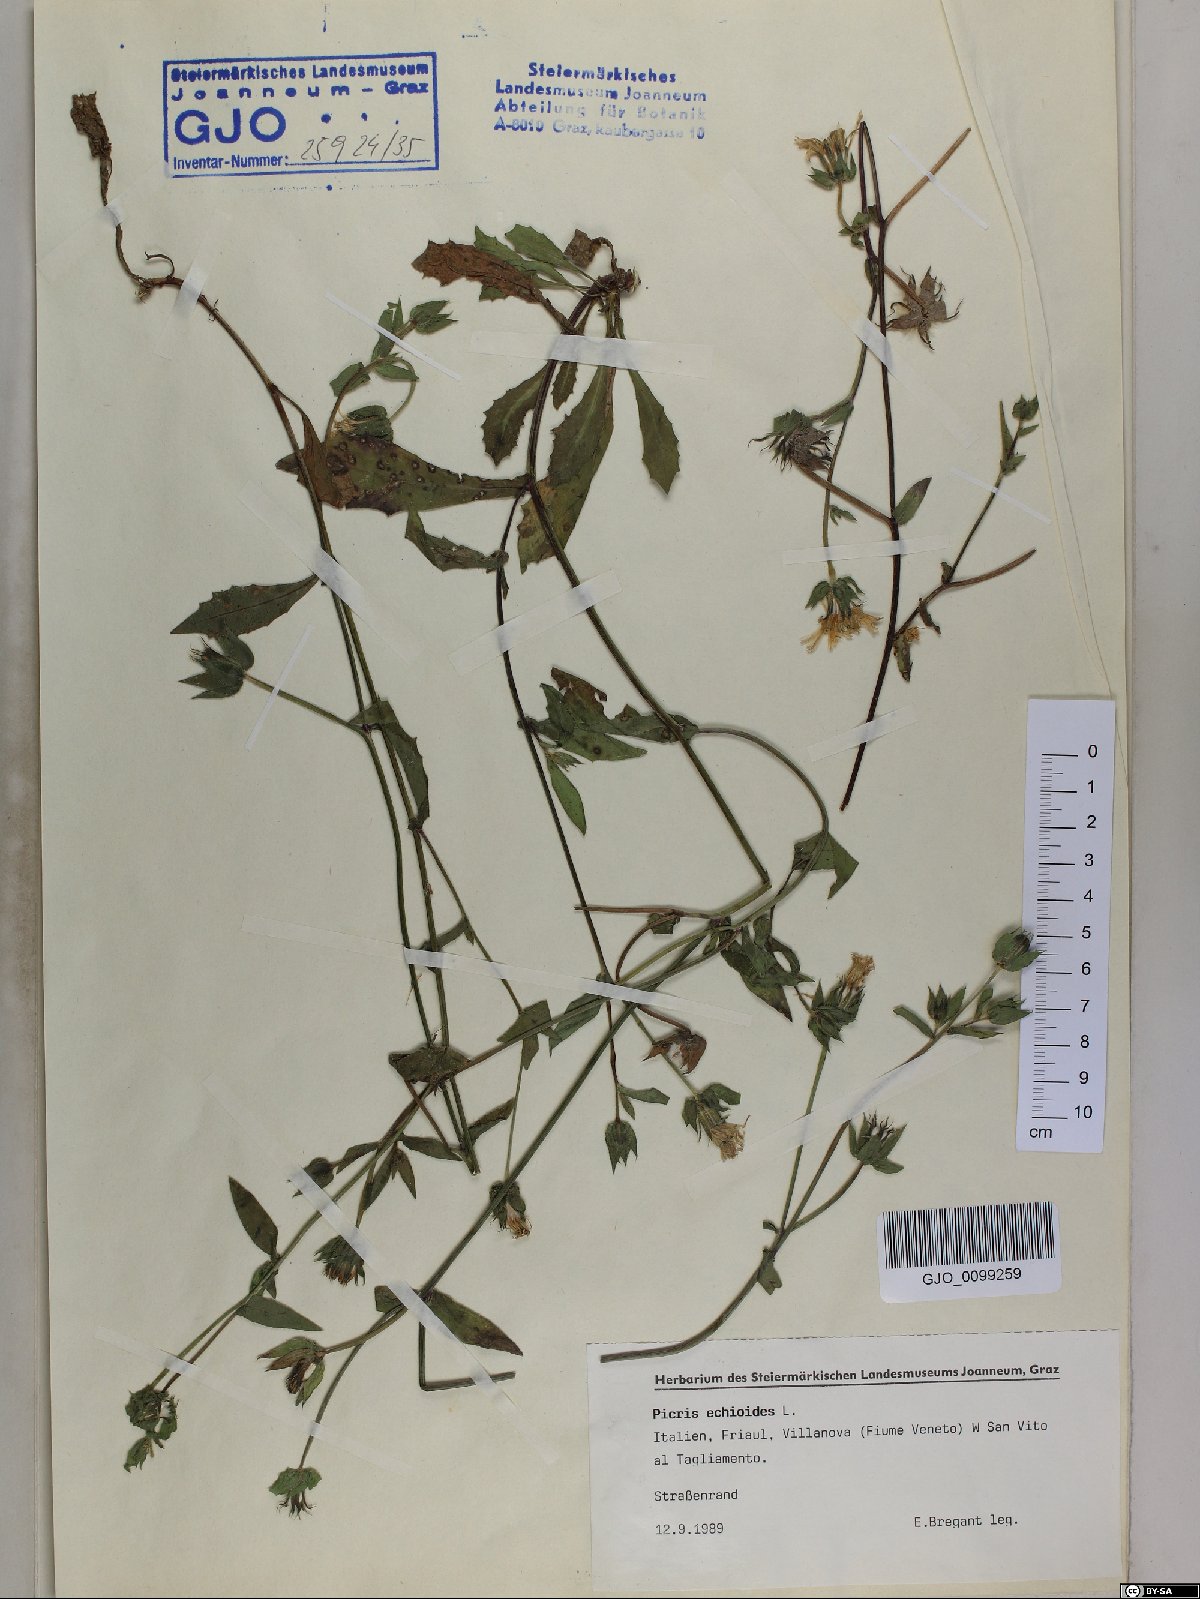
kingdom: Plantae
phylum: Tracheophyta
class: Magnoliopsida
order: Asterales
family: Asteraceae
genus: Helminthotheca
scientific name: Helminthotheca echioides
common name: Ox-tongue
